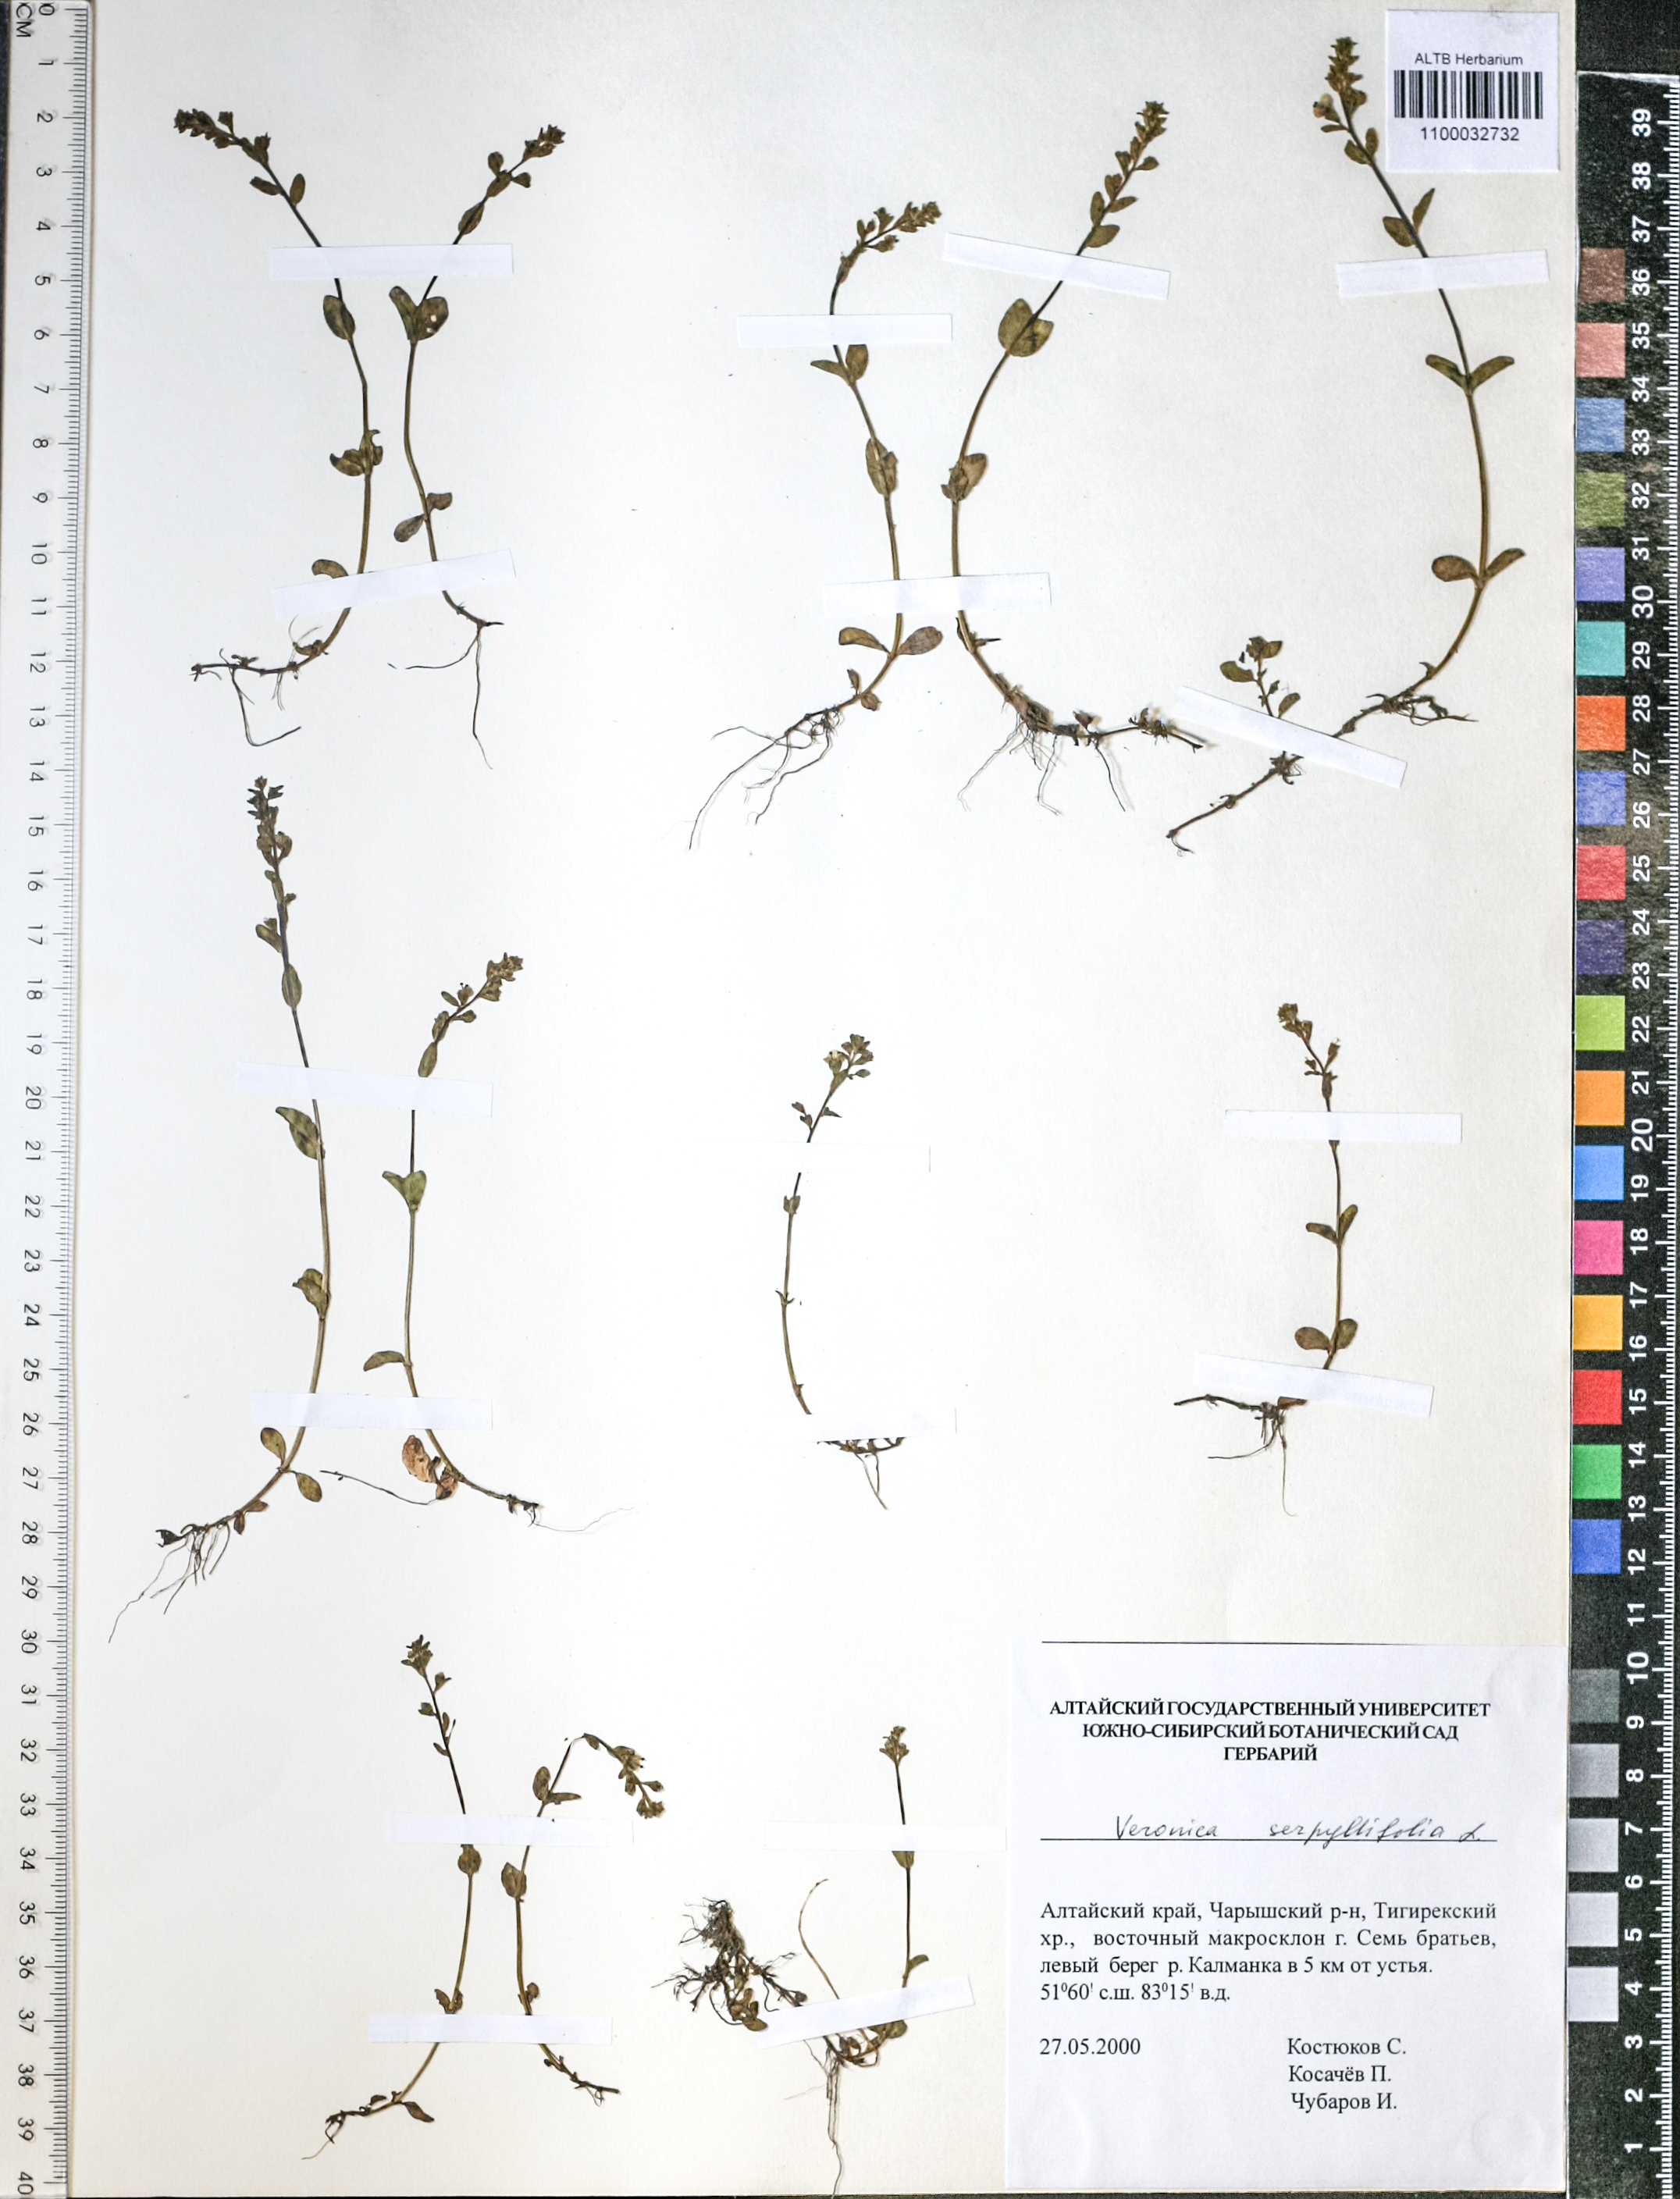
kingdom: Plantae
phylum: Tracheophyta
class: Magnoliopsida
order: Lamiales
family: Plantaginaceae
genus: Veronica
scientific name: Veronica serpyllifolia
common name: Thyme-leaved speedwell
